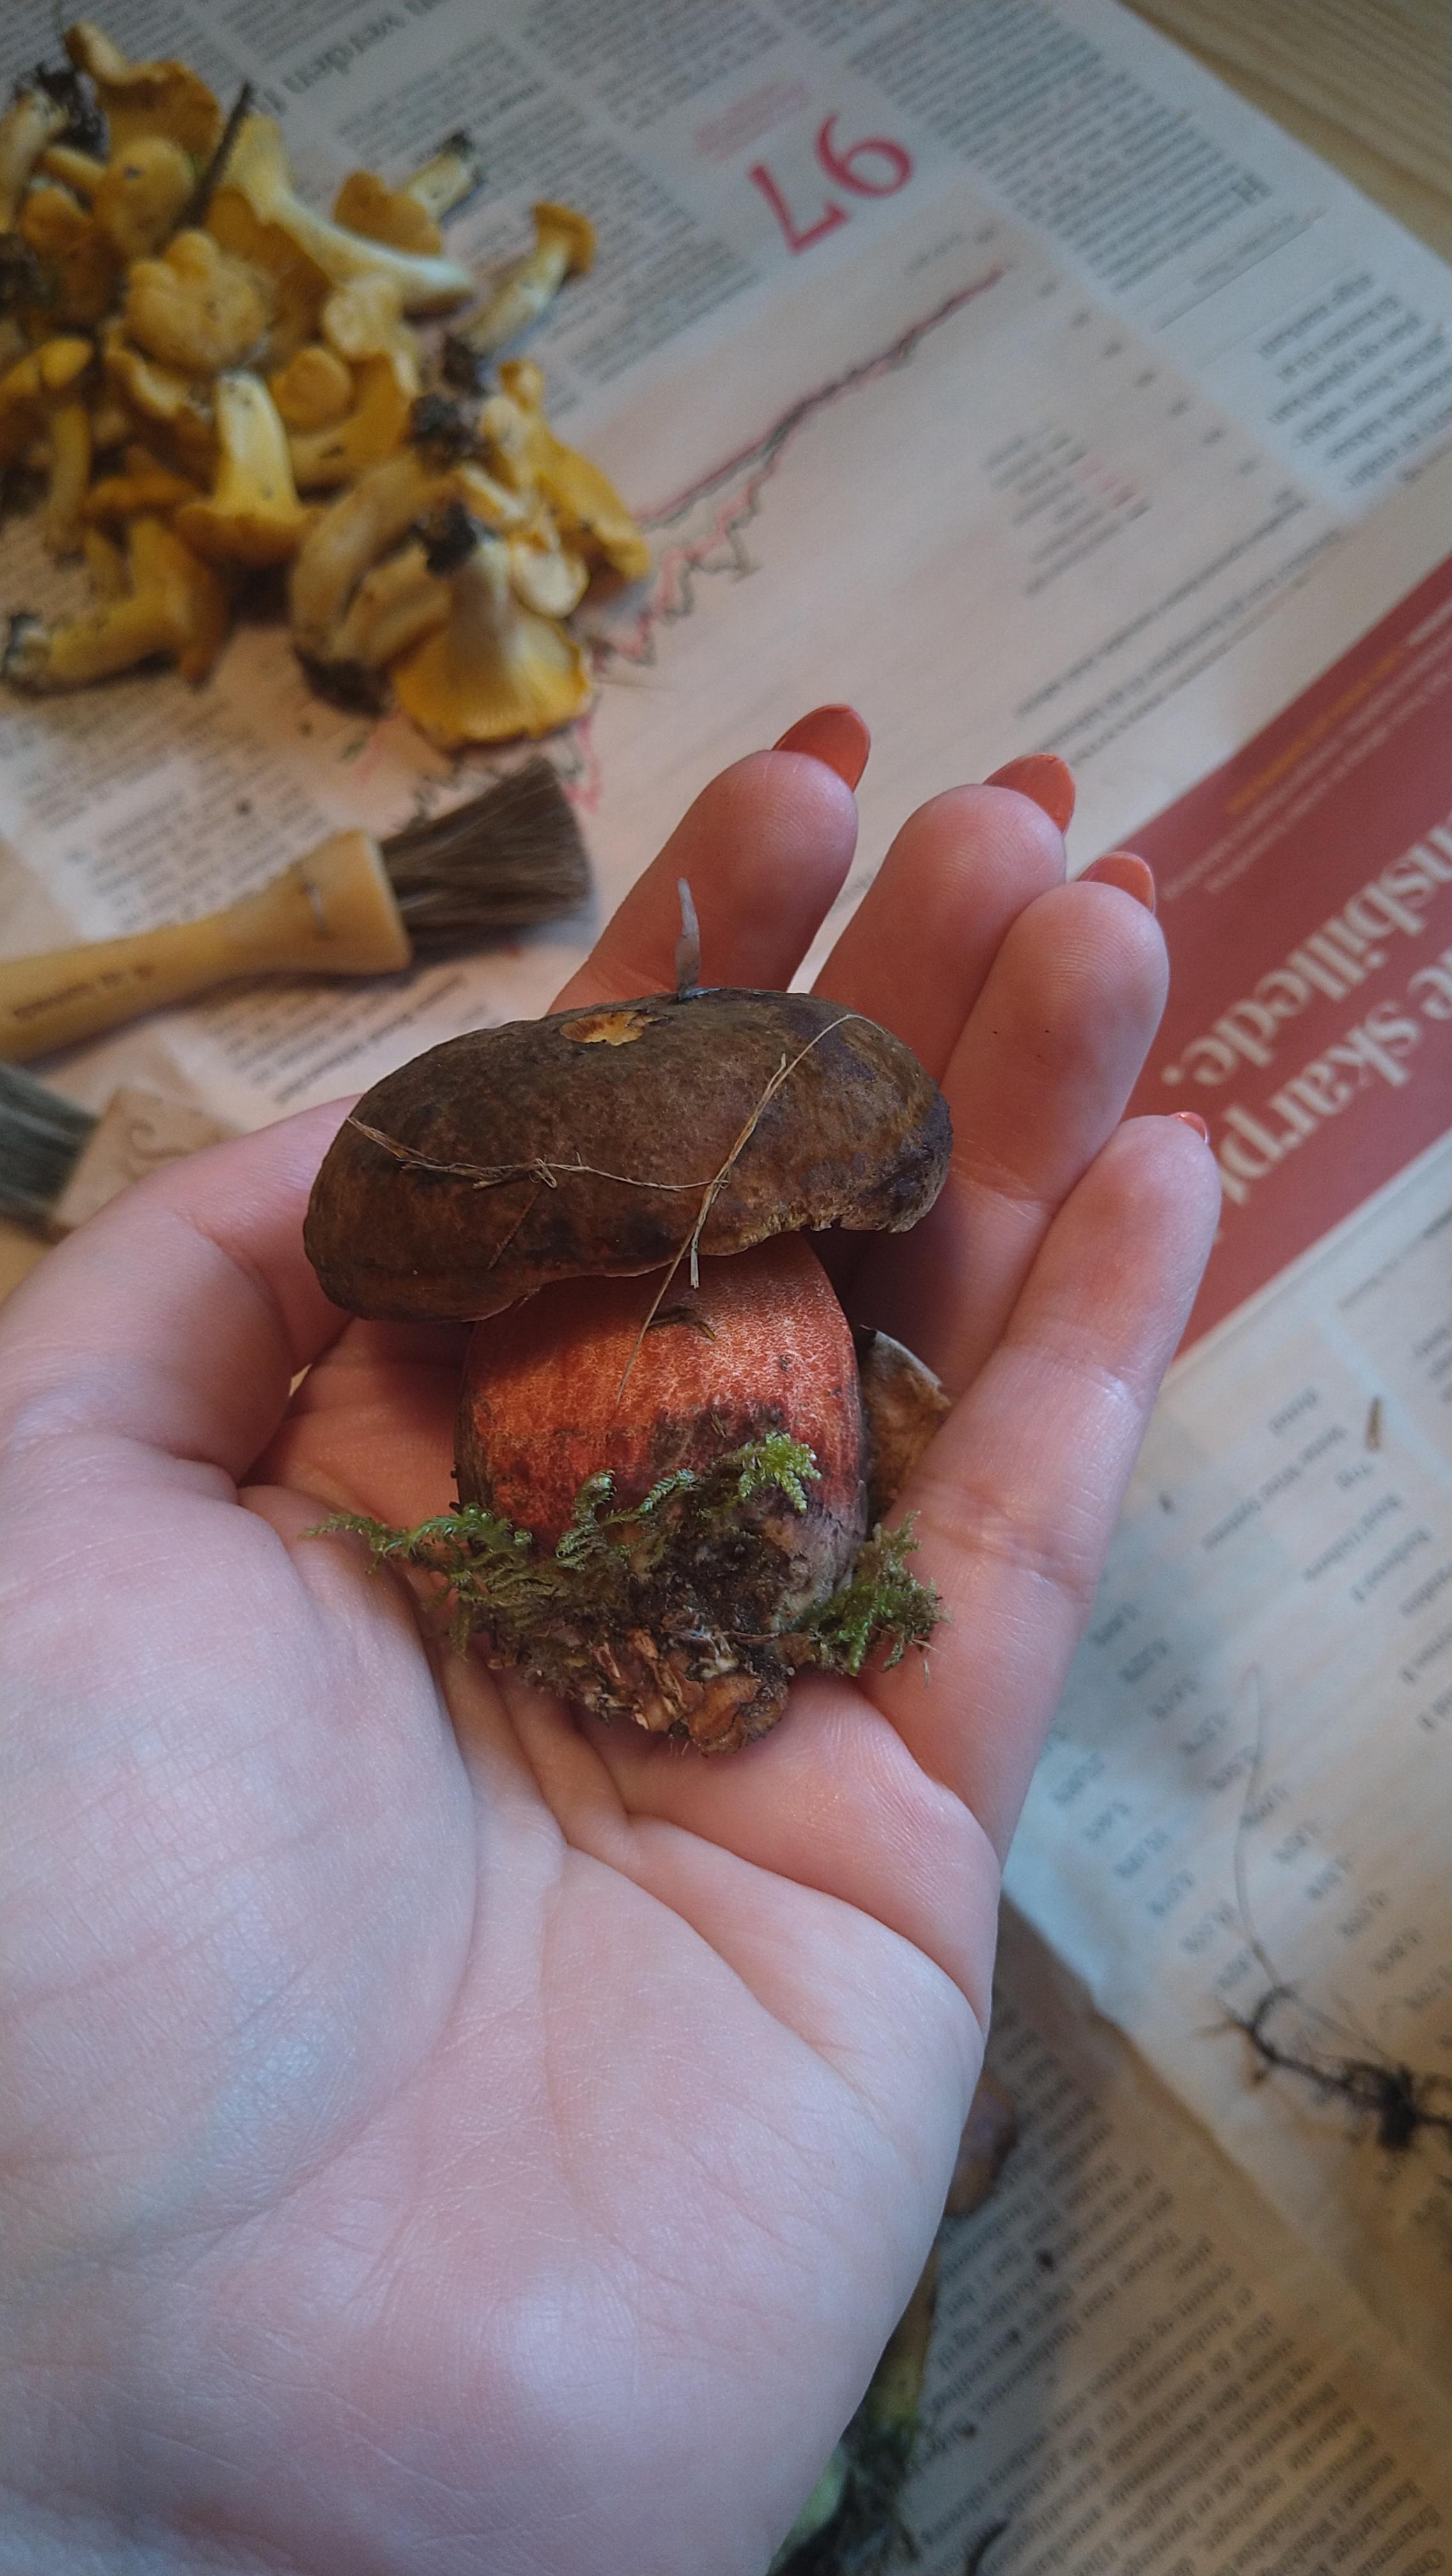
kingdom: Fungi
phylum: Basidiomycota
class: Agaricomycetes
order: Boletales
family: Boletaceae
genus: Neoboletus
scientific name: Neoboletus erythropus
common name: punktstokket indigorørhat
